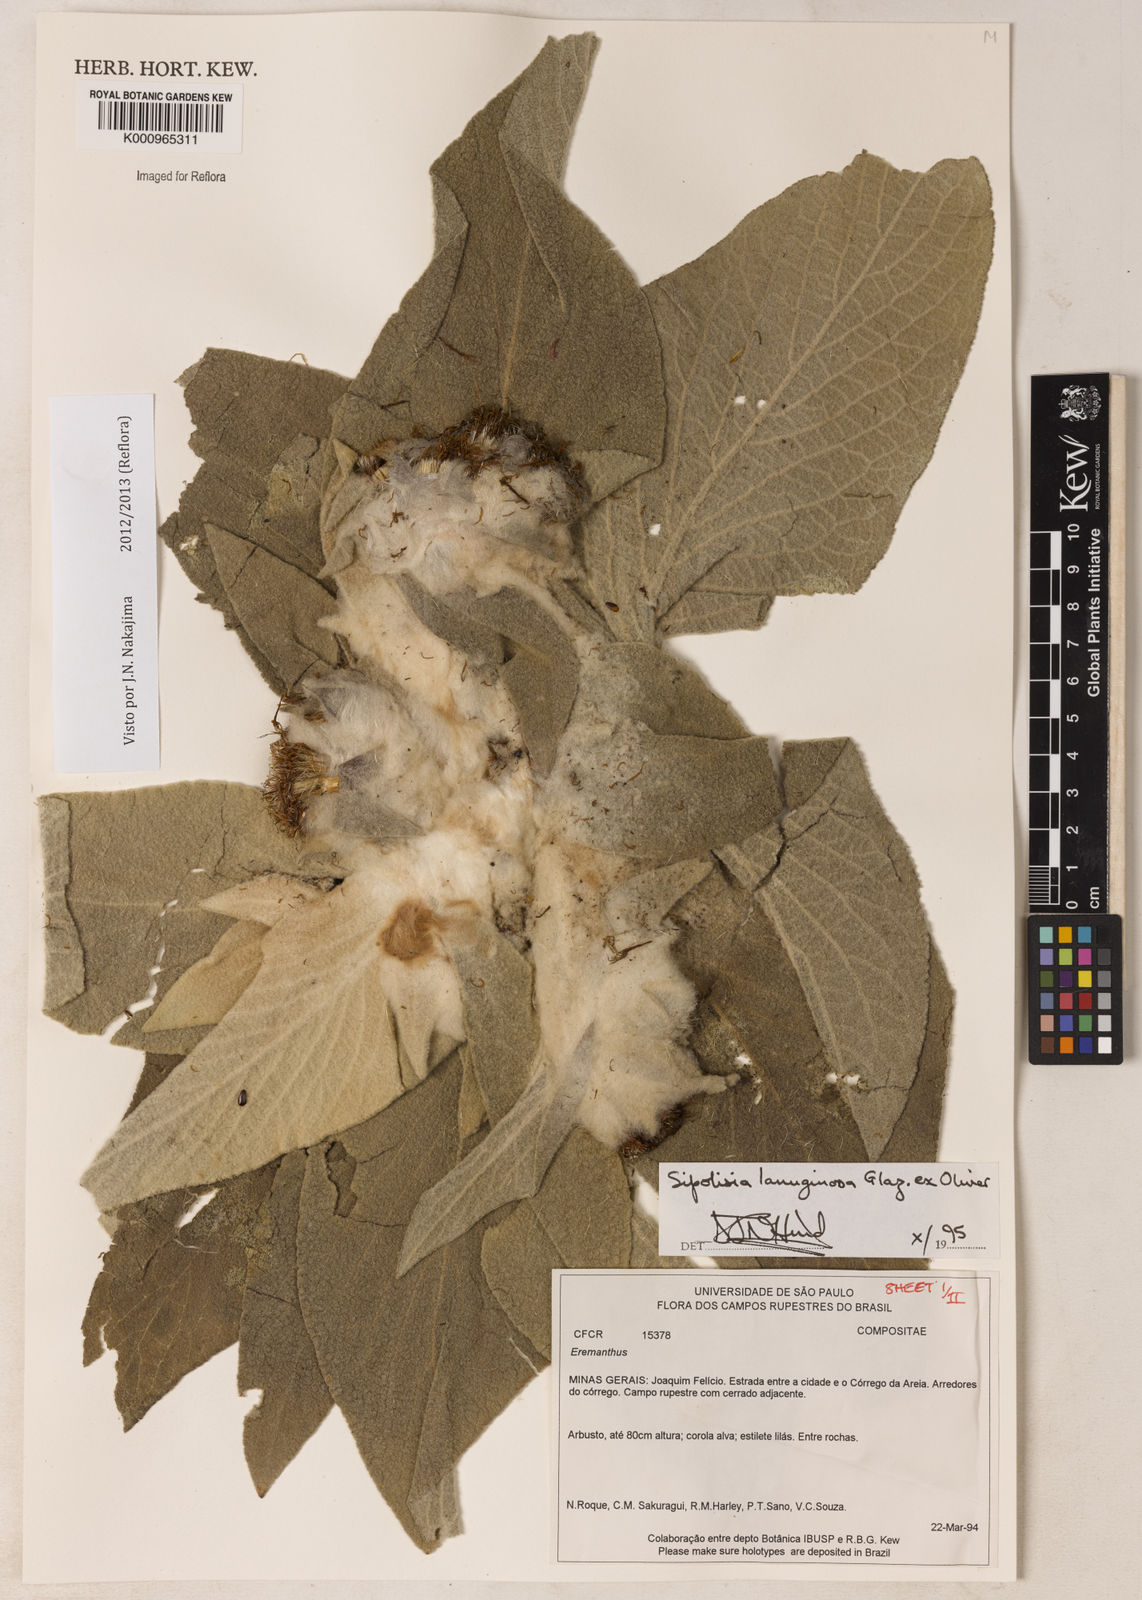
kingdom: Plantae
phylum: Tracheophyta
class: Magnoliopsida
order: Asterales
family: Asteraceae
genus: Heterocoma
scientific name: Heterocoma lanuginosa
